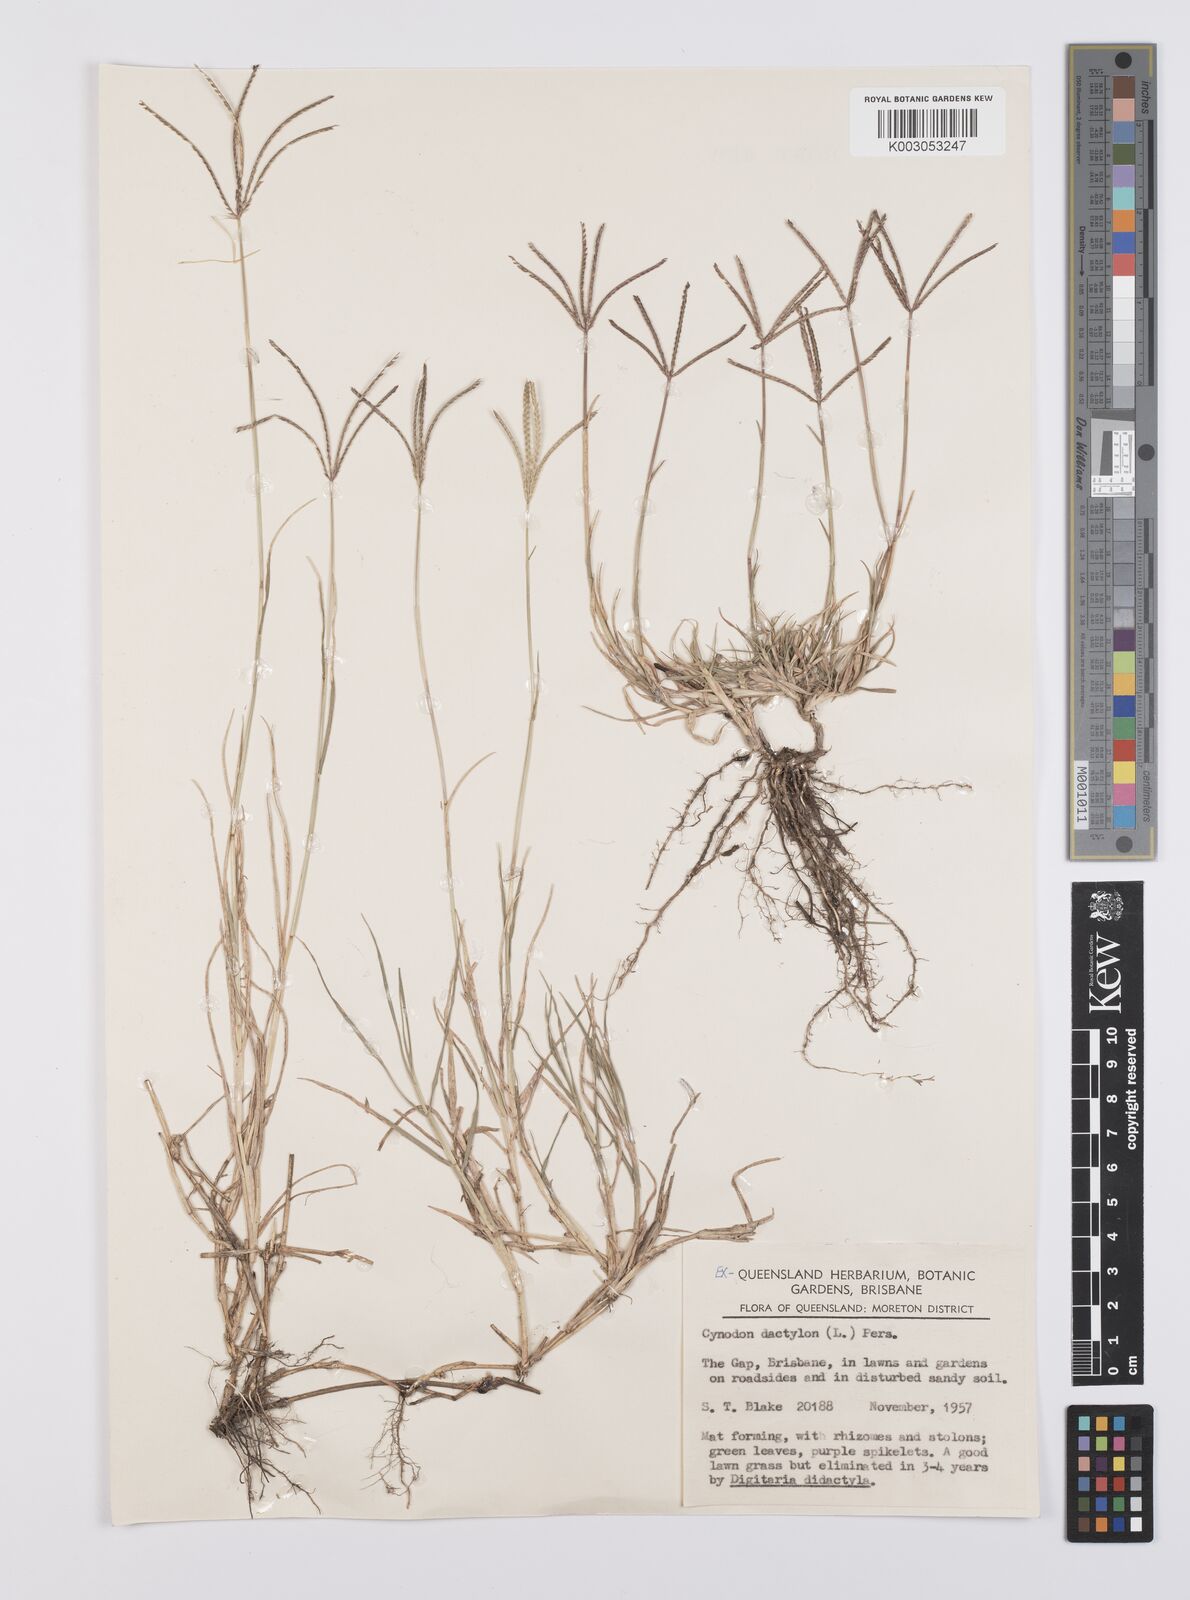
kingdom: Plantae
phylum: Tracheophyta
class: Liliopsida
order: Poales
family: Poaceae
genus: Cynodon
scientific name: Cynodon dactylon
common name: Bermuda grass
